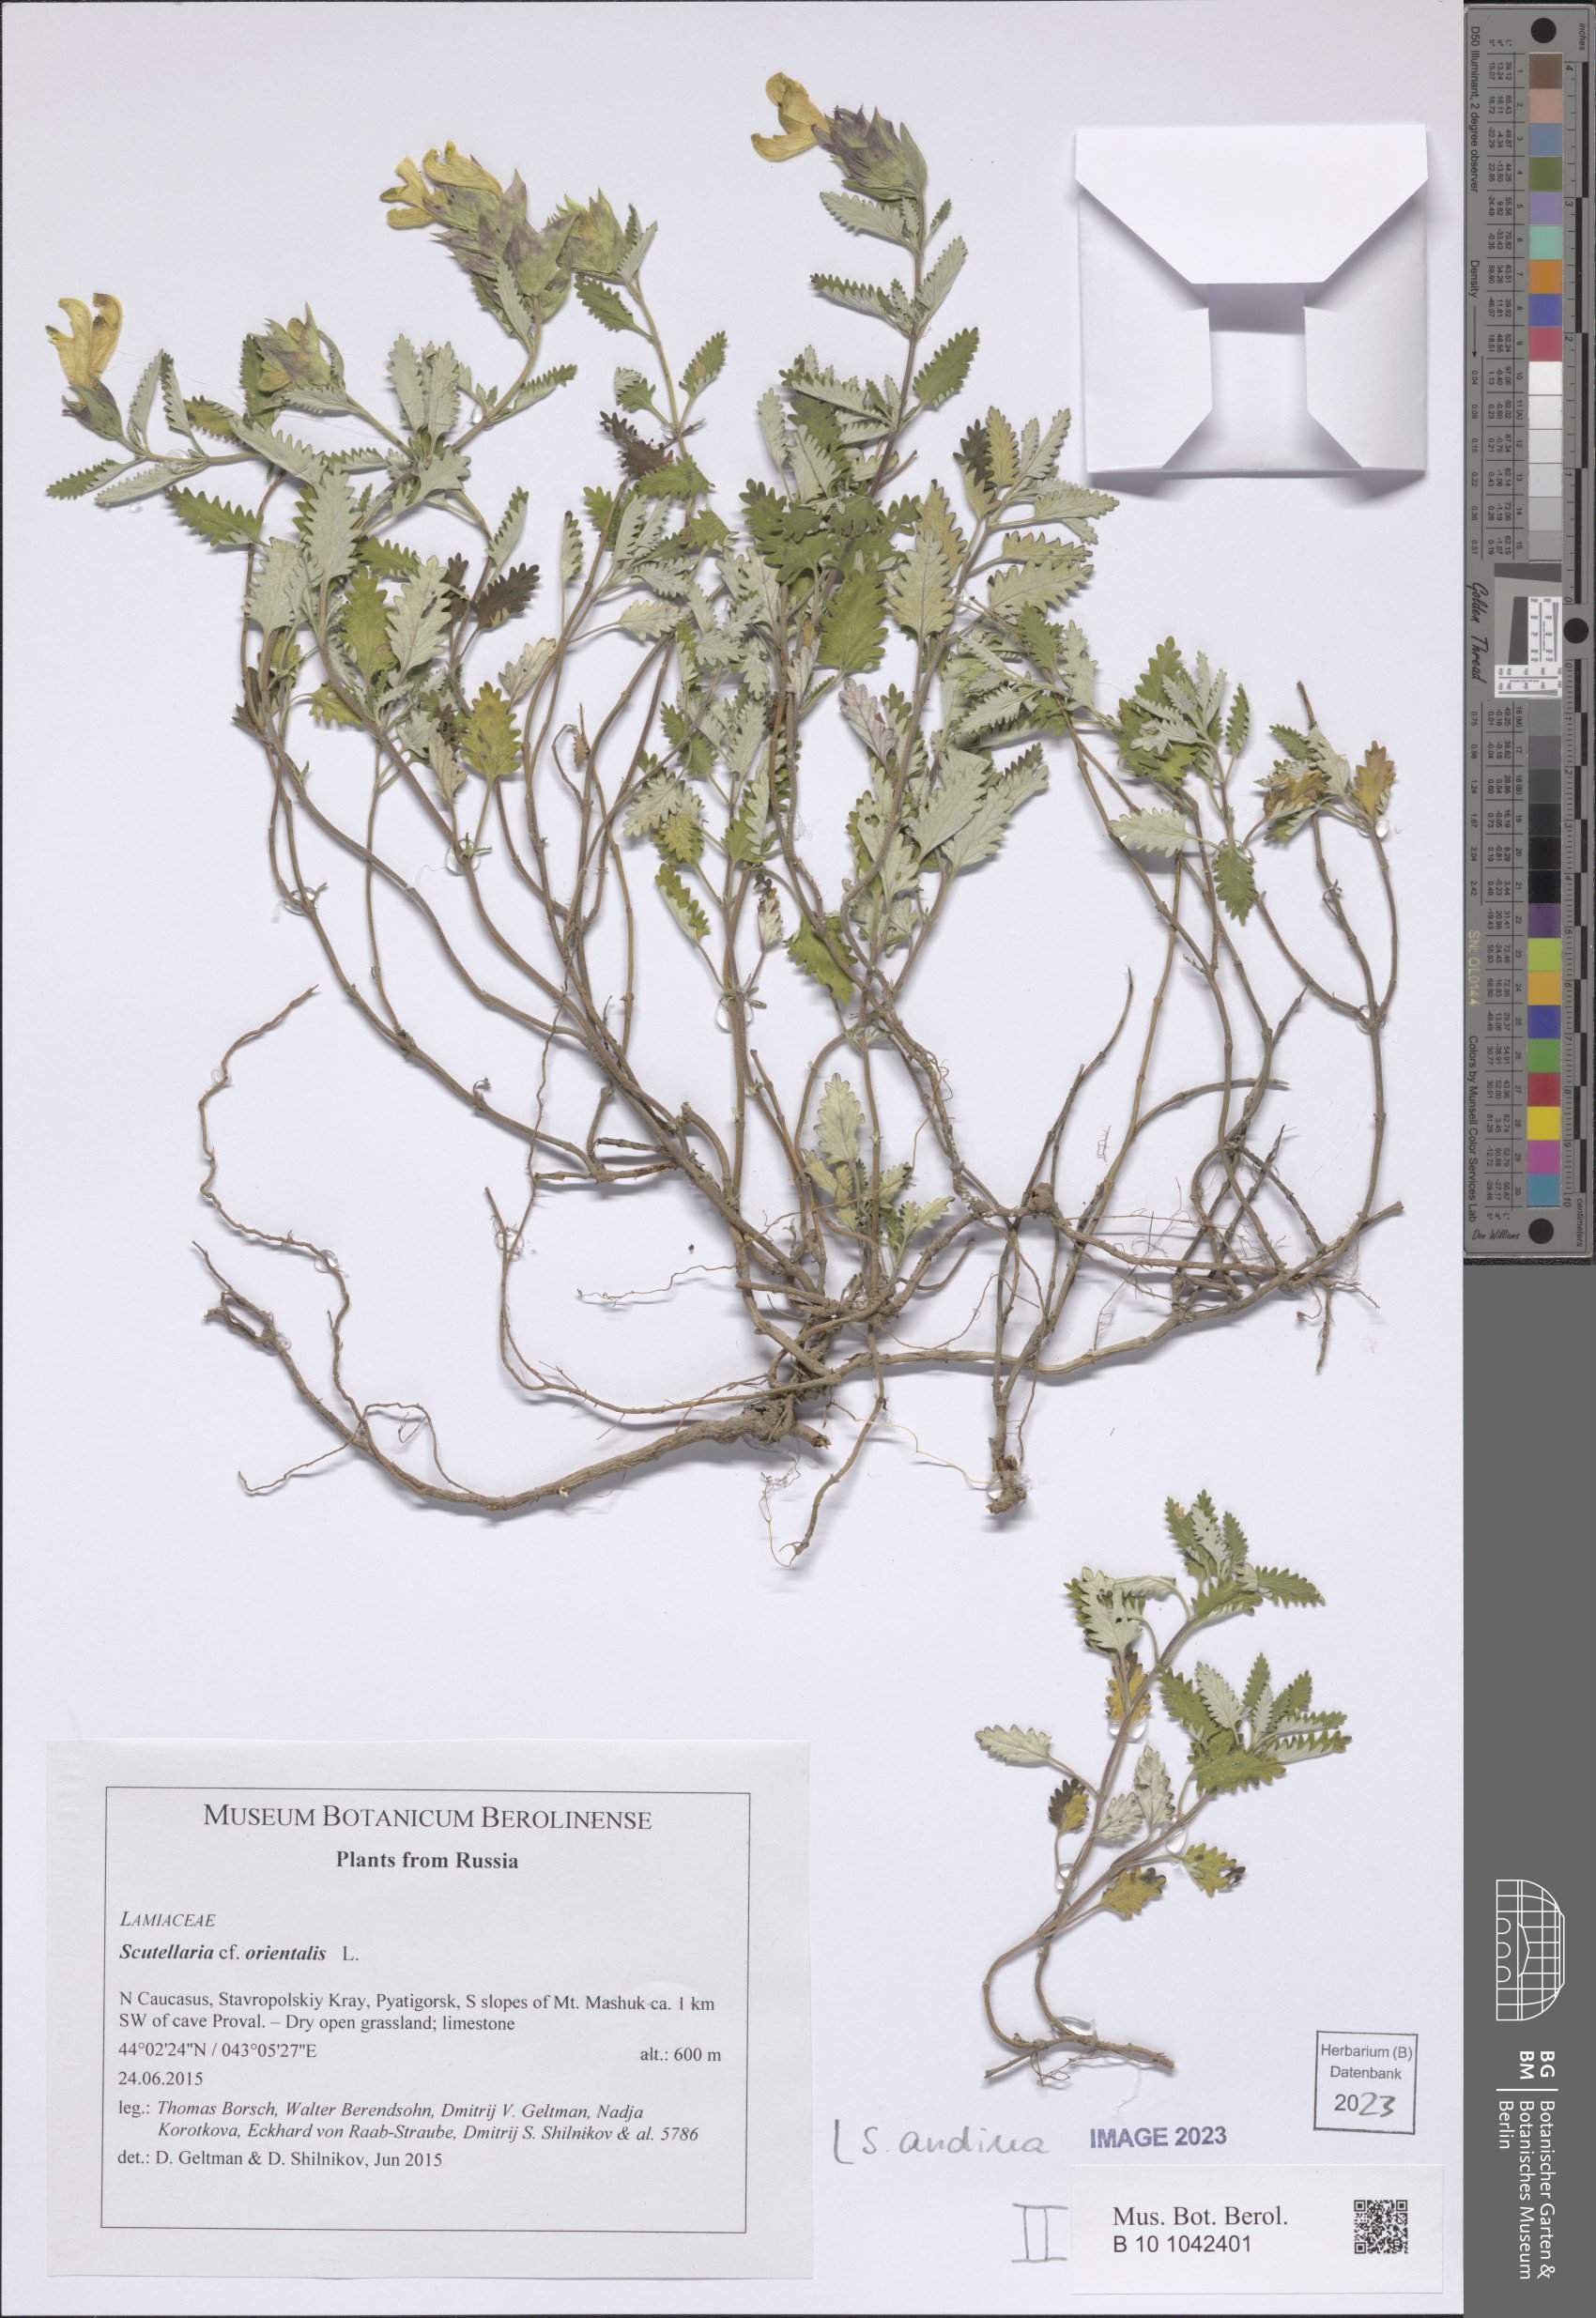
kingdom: Plantae
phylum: Tracheophyta
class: Magnoliopsida
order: Lamiales
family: Lamiaceae
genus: Scutellaria
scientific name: Scutellaria andina
